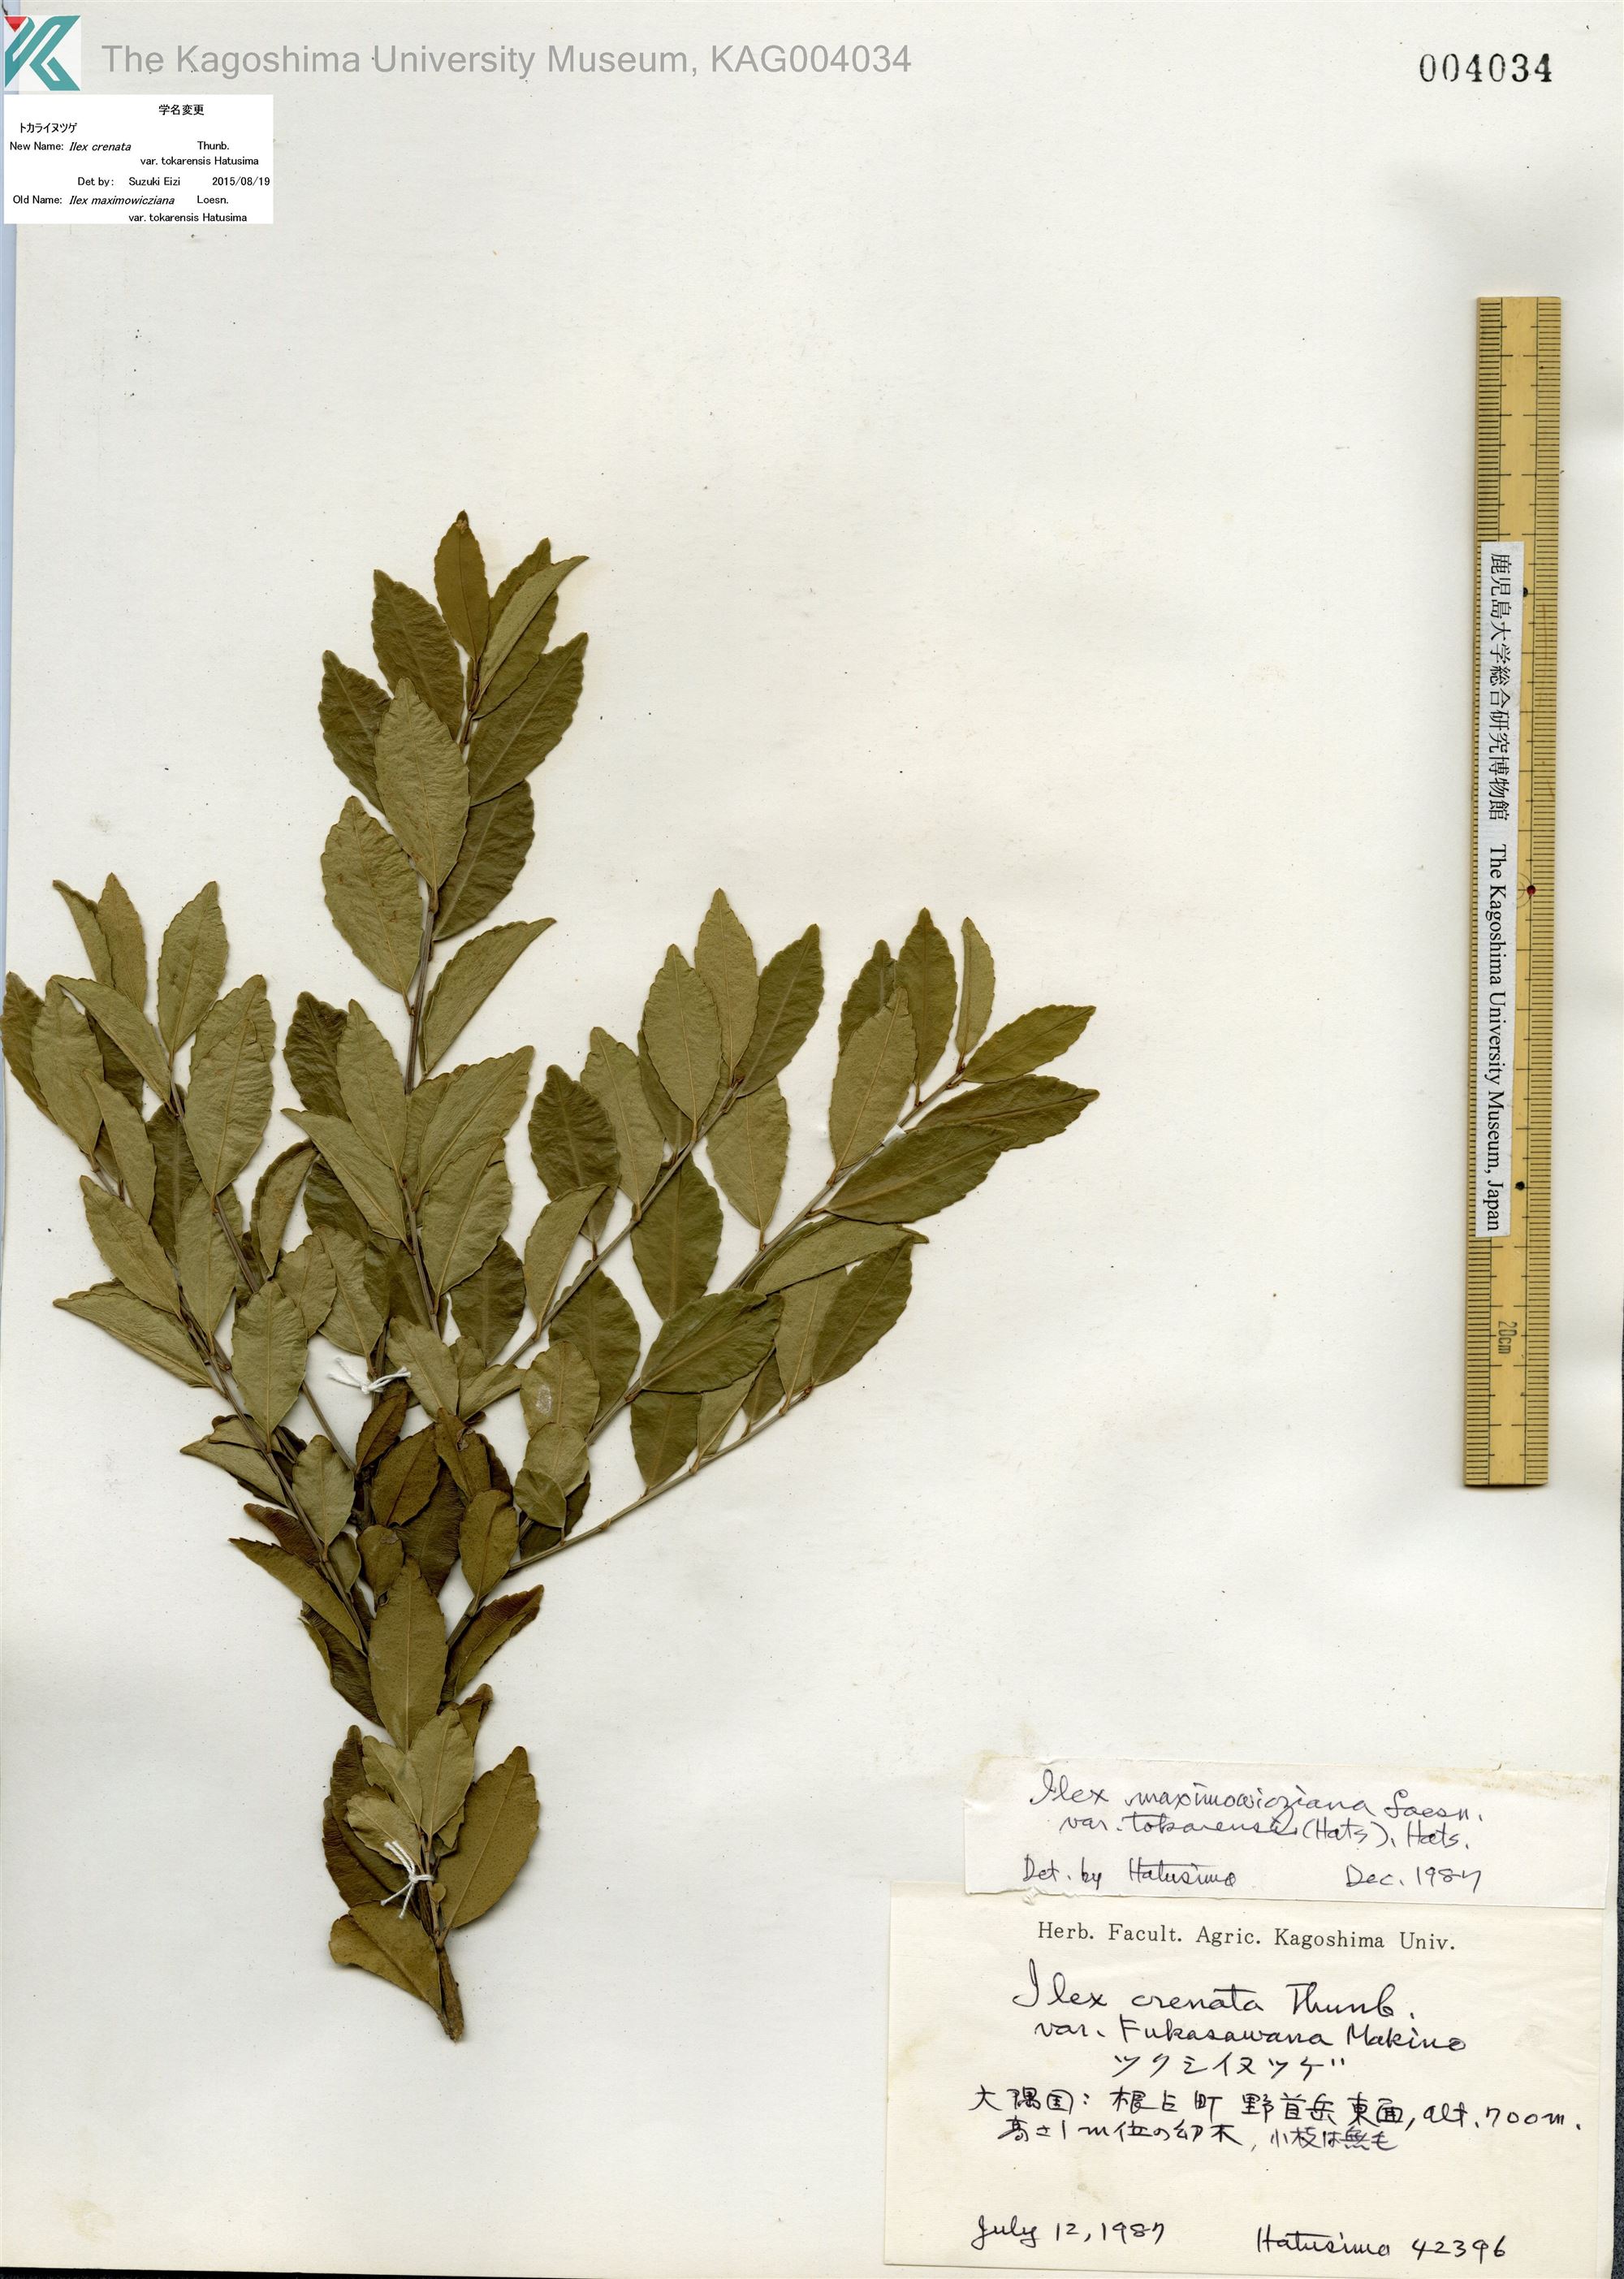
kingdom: Plantae
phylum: Tracheophyta
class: Magnoliopsida
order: Aquifoliales
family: Aquifoliaceae
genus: Ilex
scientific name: Ilex crenata
